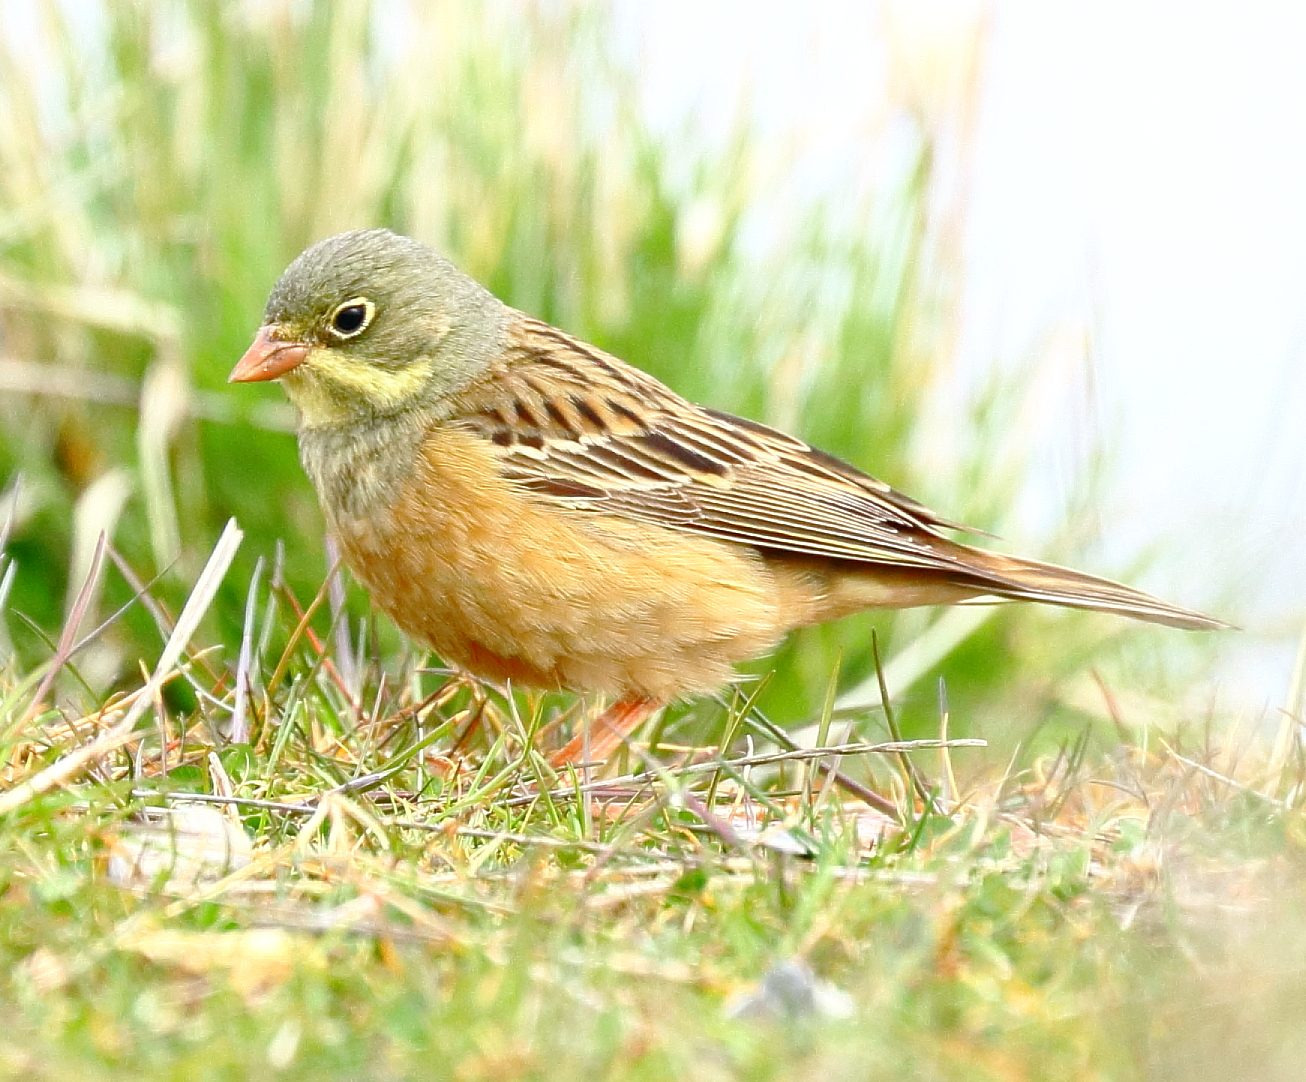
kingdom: Animalia
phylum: Chordata
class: Aves
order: Passeriformes
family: Emberizidae
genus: Emberiza
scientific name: Emberiza hortulana
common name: Hortulan
